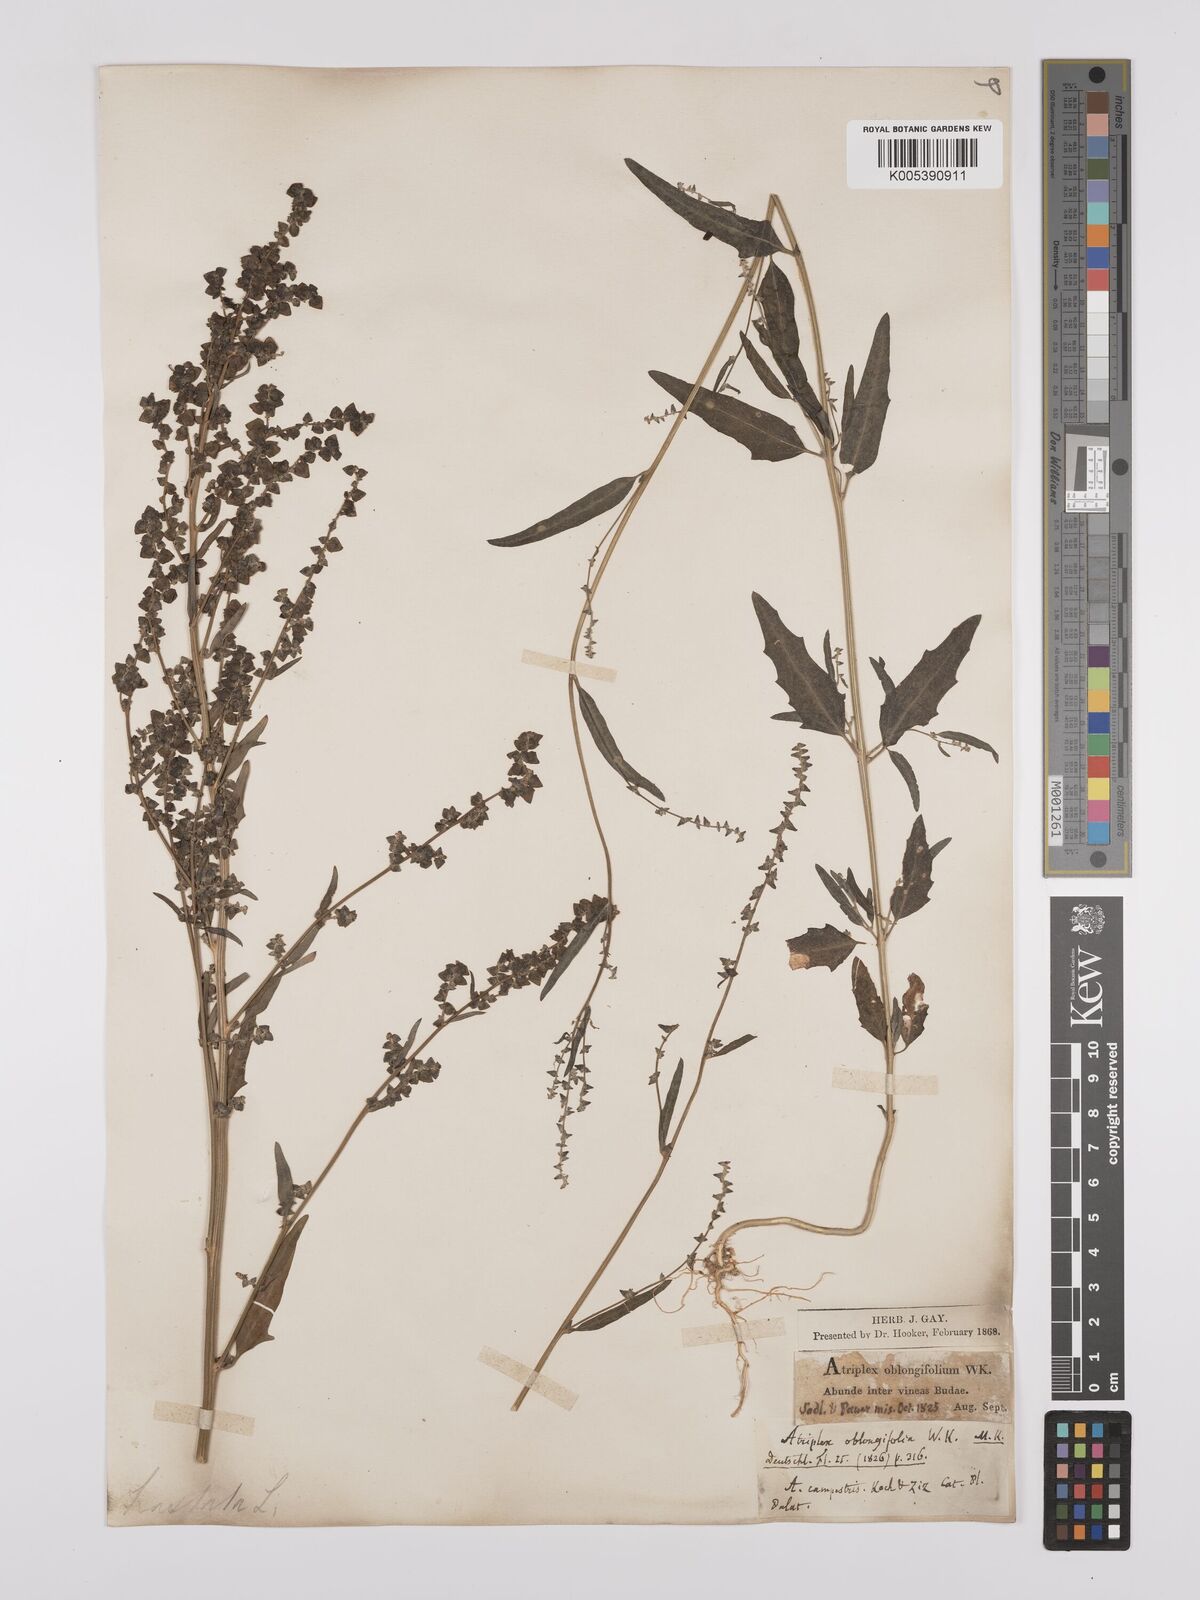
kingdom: Plantae
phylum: Tracheophyta
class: Magnoliopsida
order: Caryophyllales
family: Amaranthaceae
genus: Atriplex
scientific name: Atriplex
